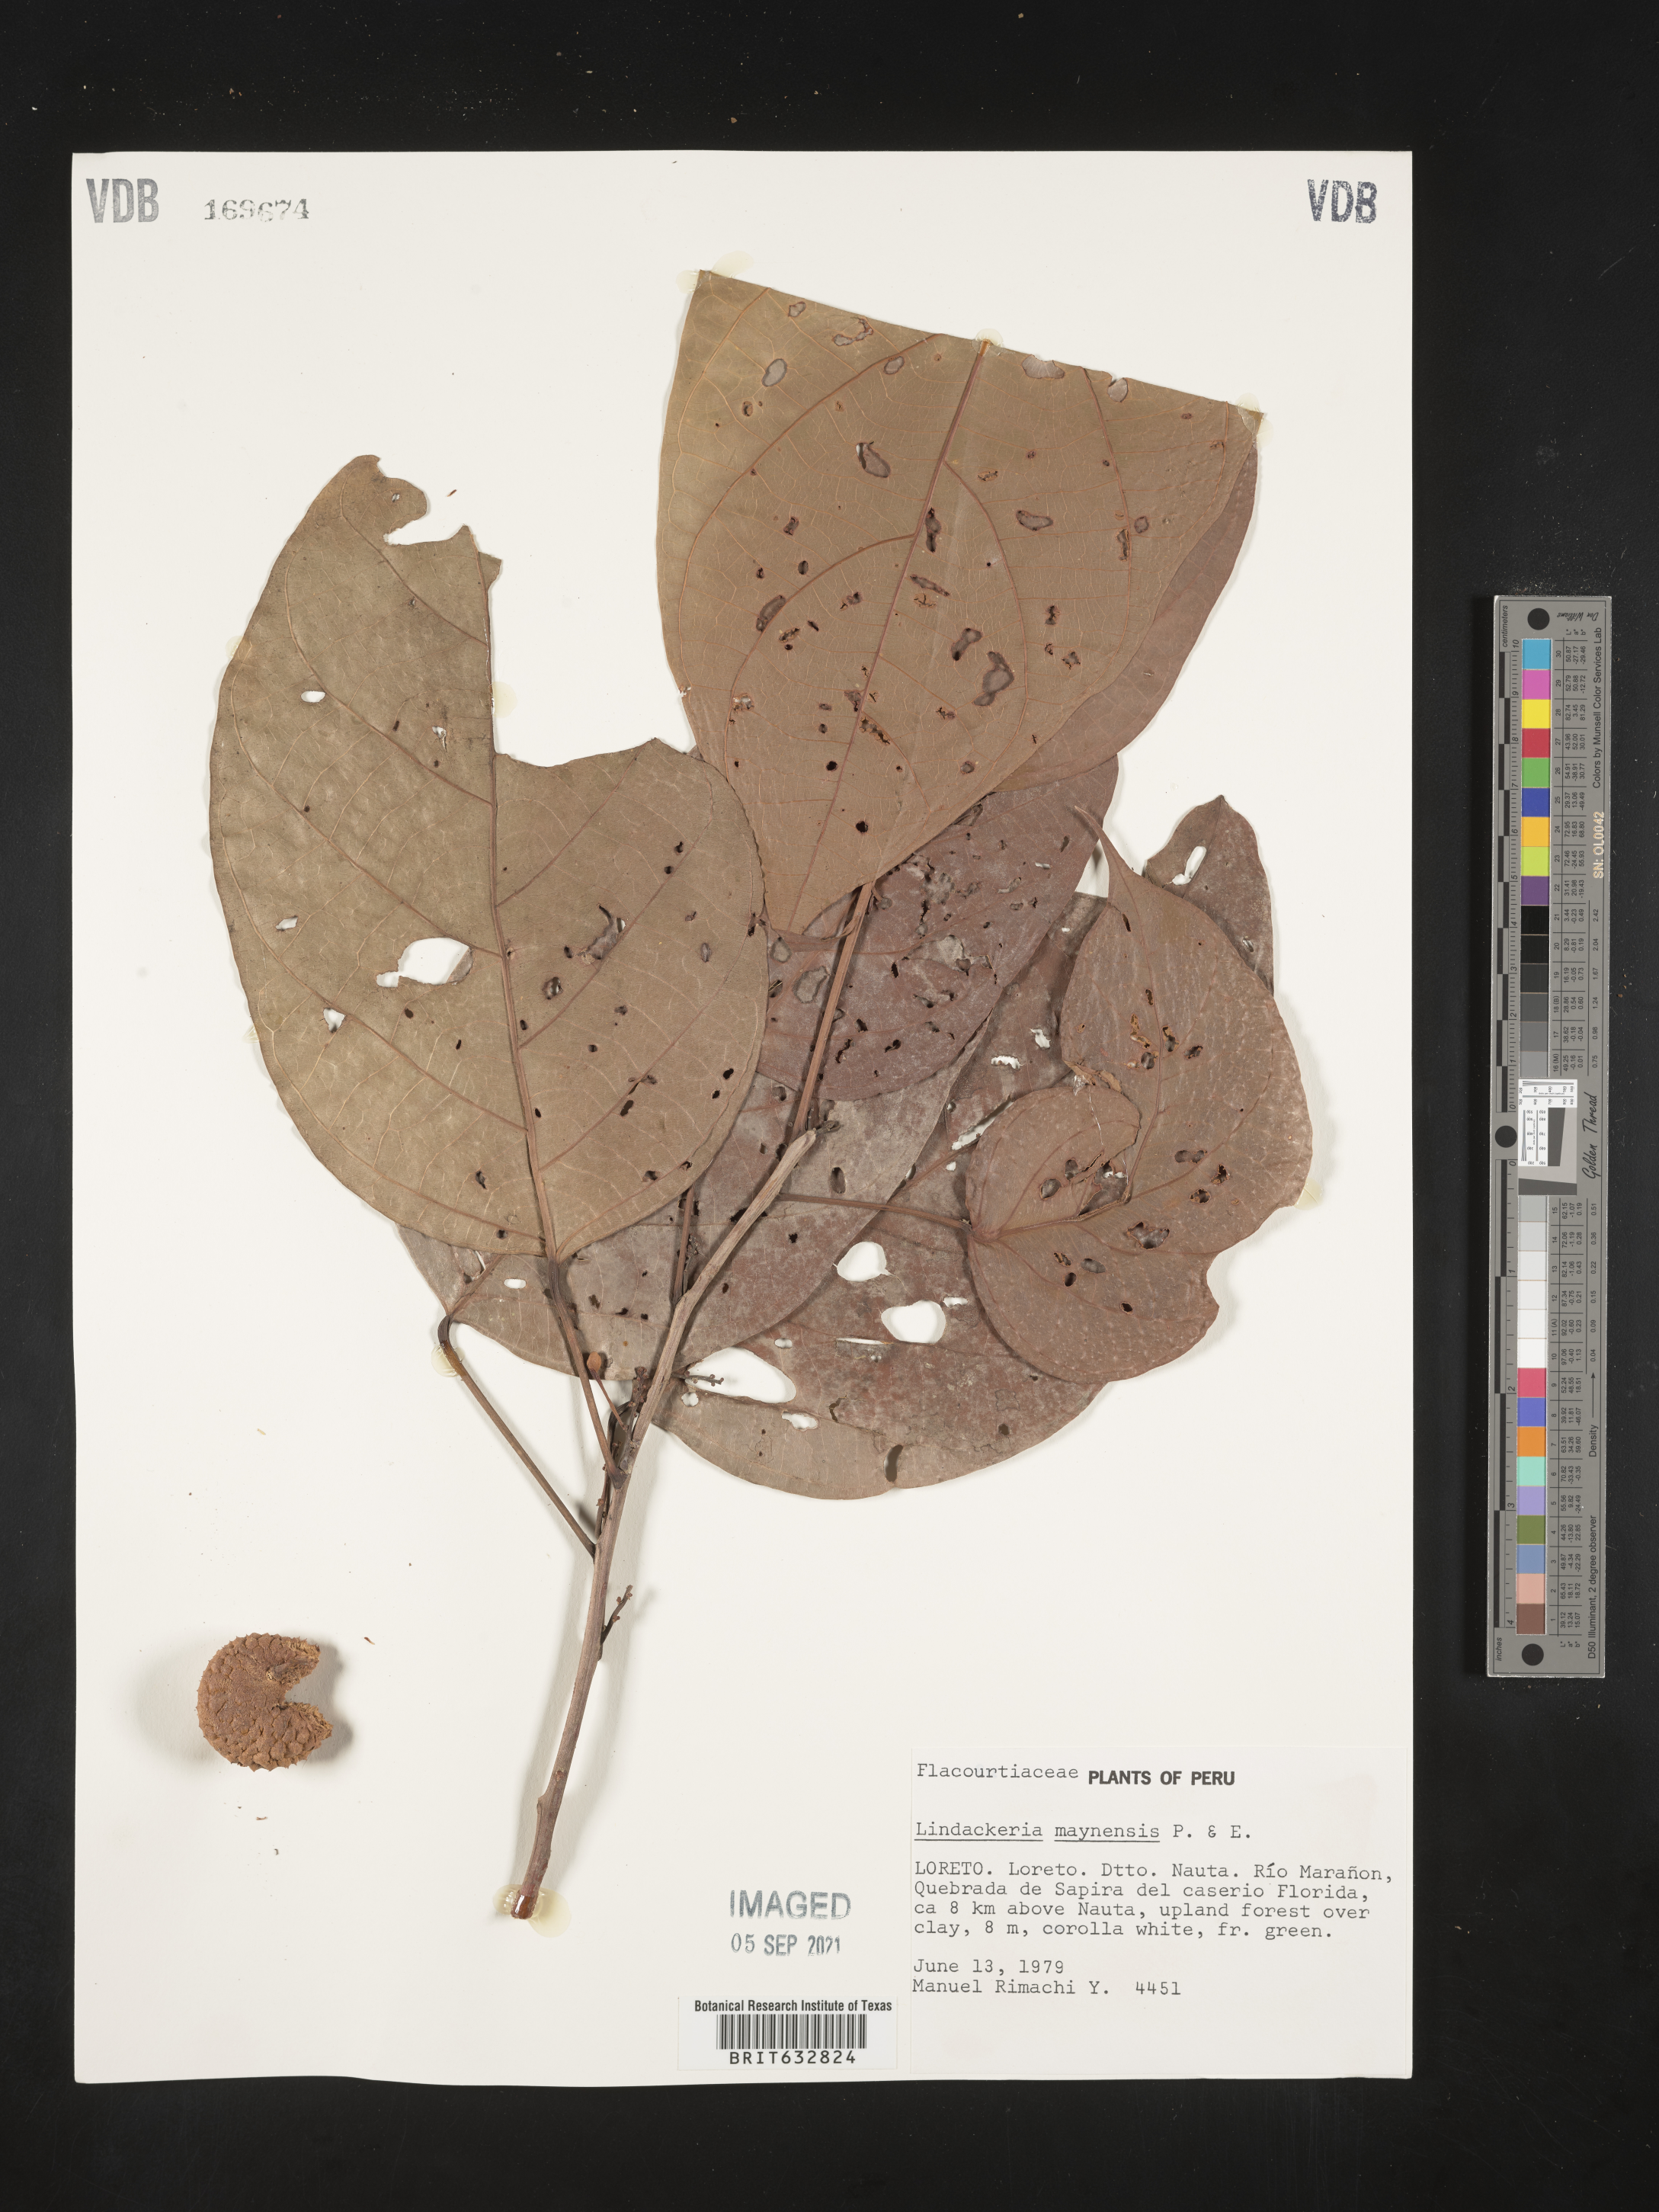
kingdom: Plantae
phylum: Tracheophyta
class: Magnoliopsida
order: Malpighiales
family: Achariaceae
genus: Lindackeria
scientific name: Lindackeria paludosa
